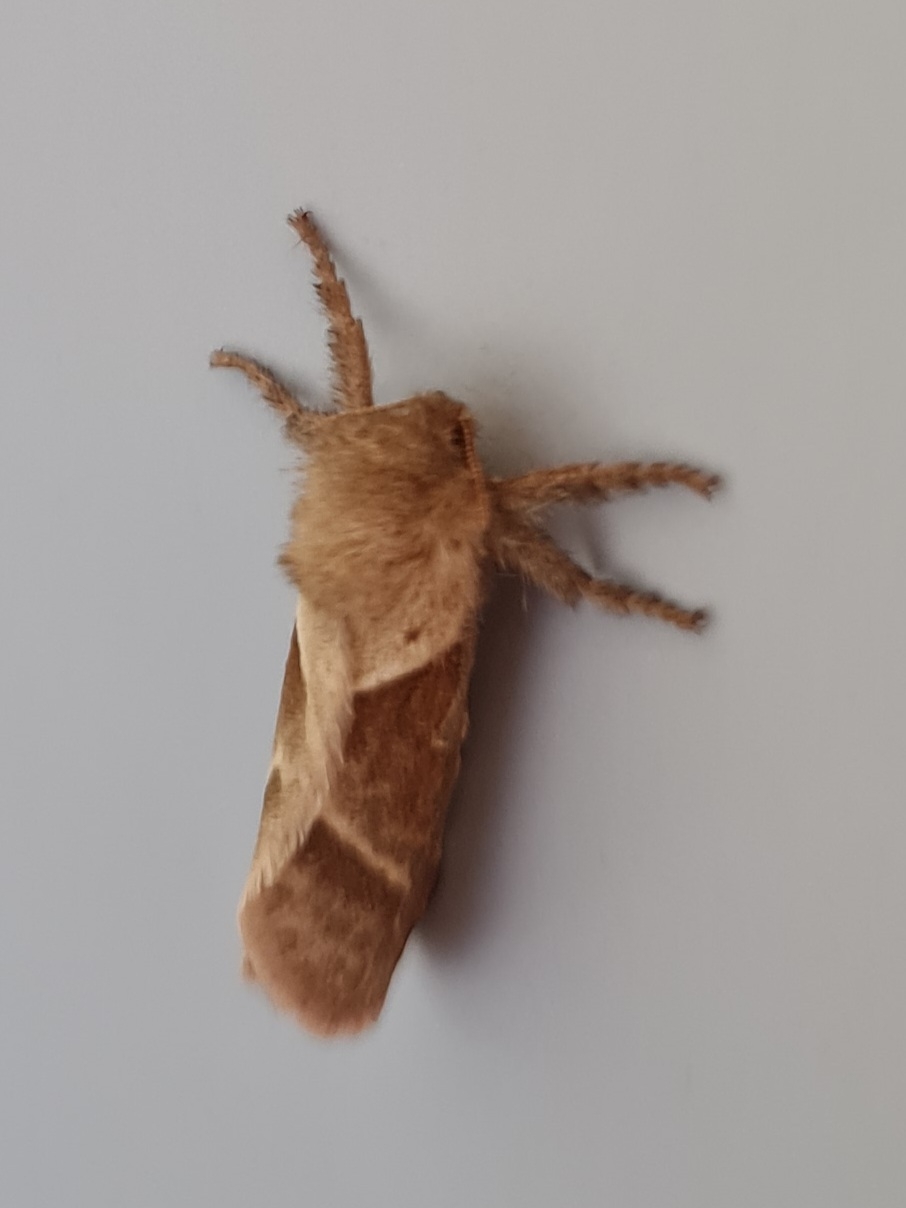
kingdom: Animalia
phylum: Arthropoda
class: Insecta
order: Lepidoptera
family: Hepialidae
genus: Triodia
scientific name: Triodia sylvina
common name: Skræpperodæder
